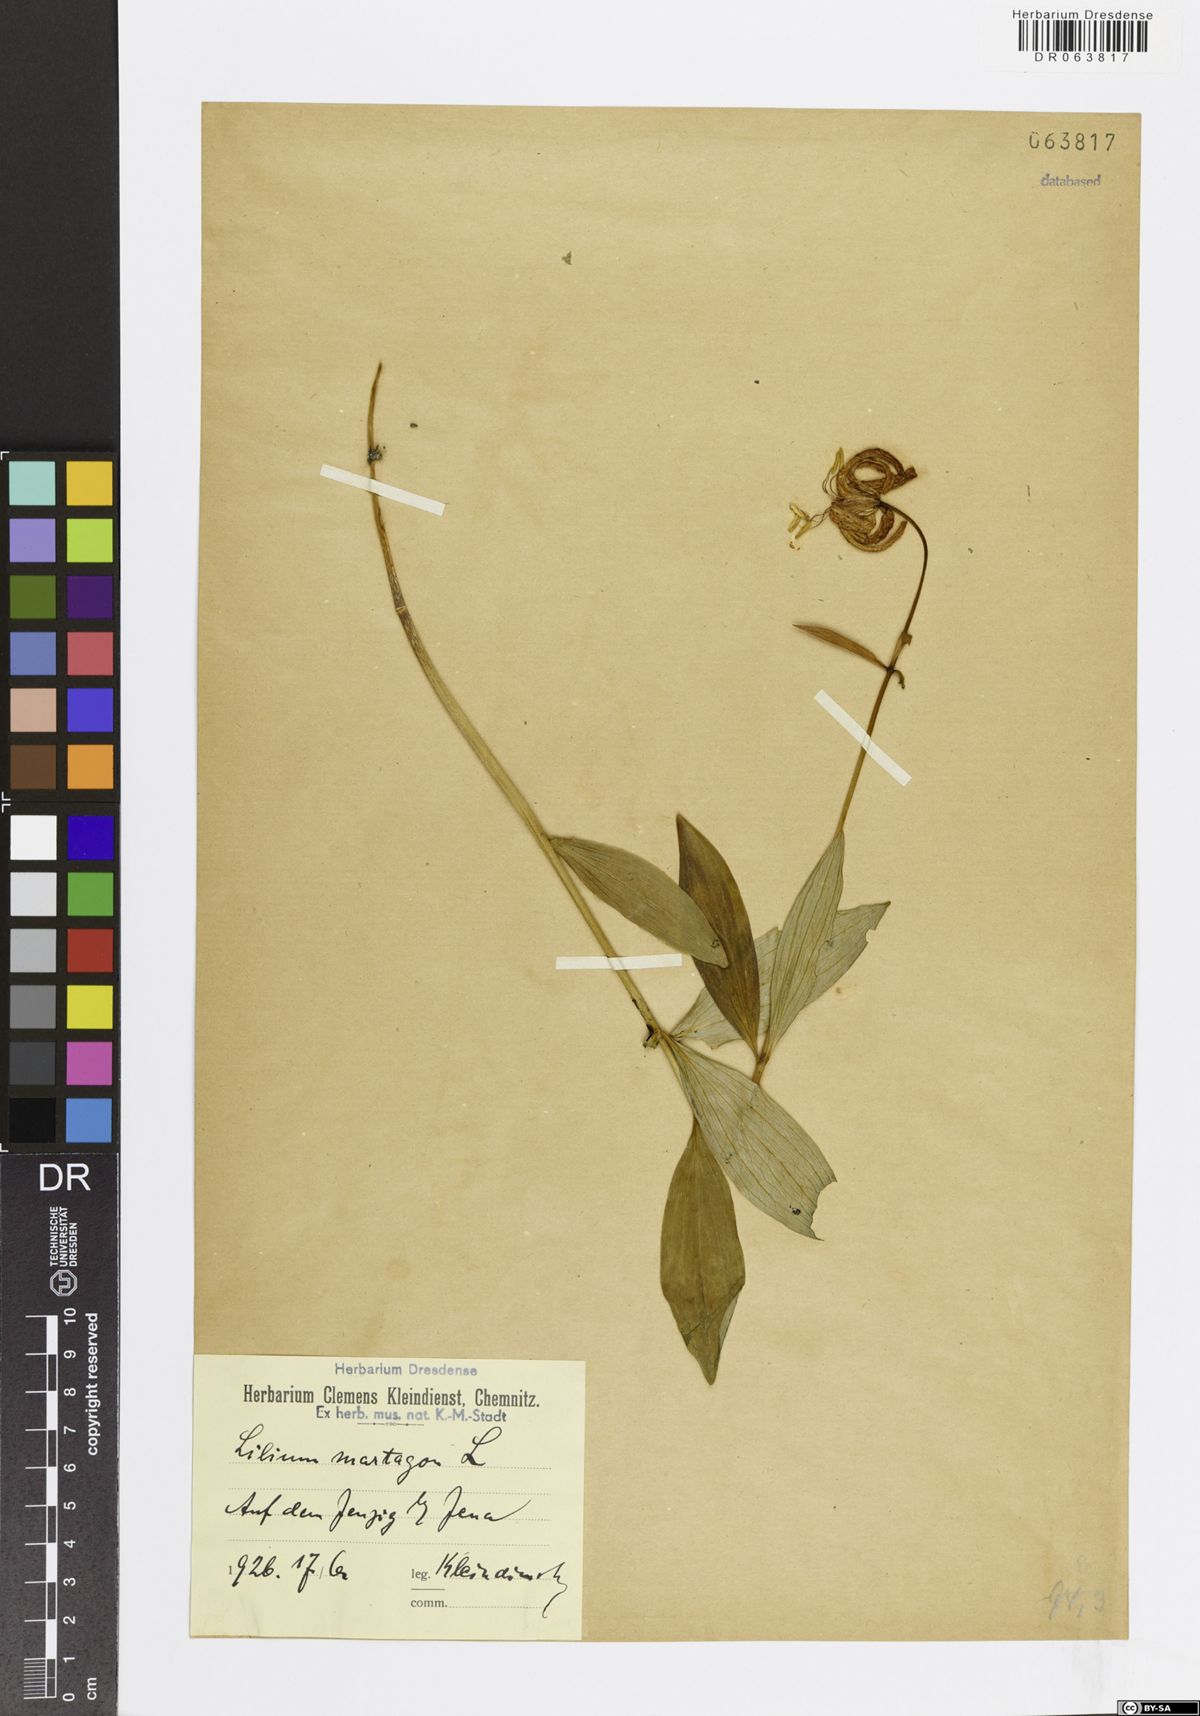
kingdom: Plantae
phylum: Tracheophyta
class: Liliopsida
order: Liliales
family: Liliaceae
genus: Lilium
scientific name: Lilium martagon
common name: Martagon lily
